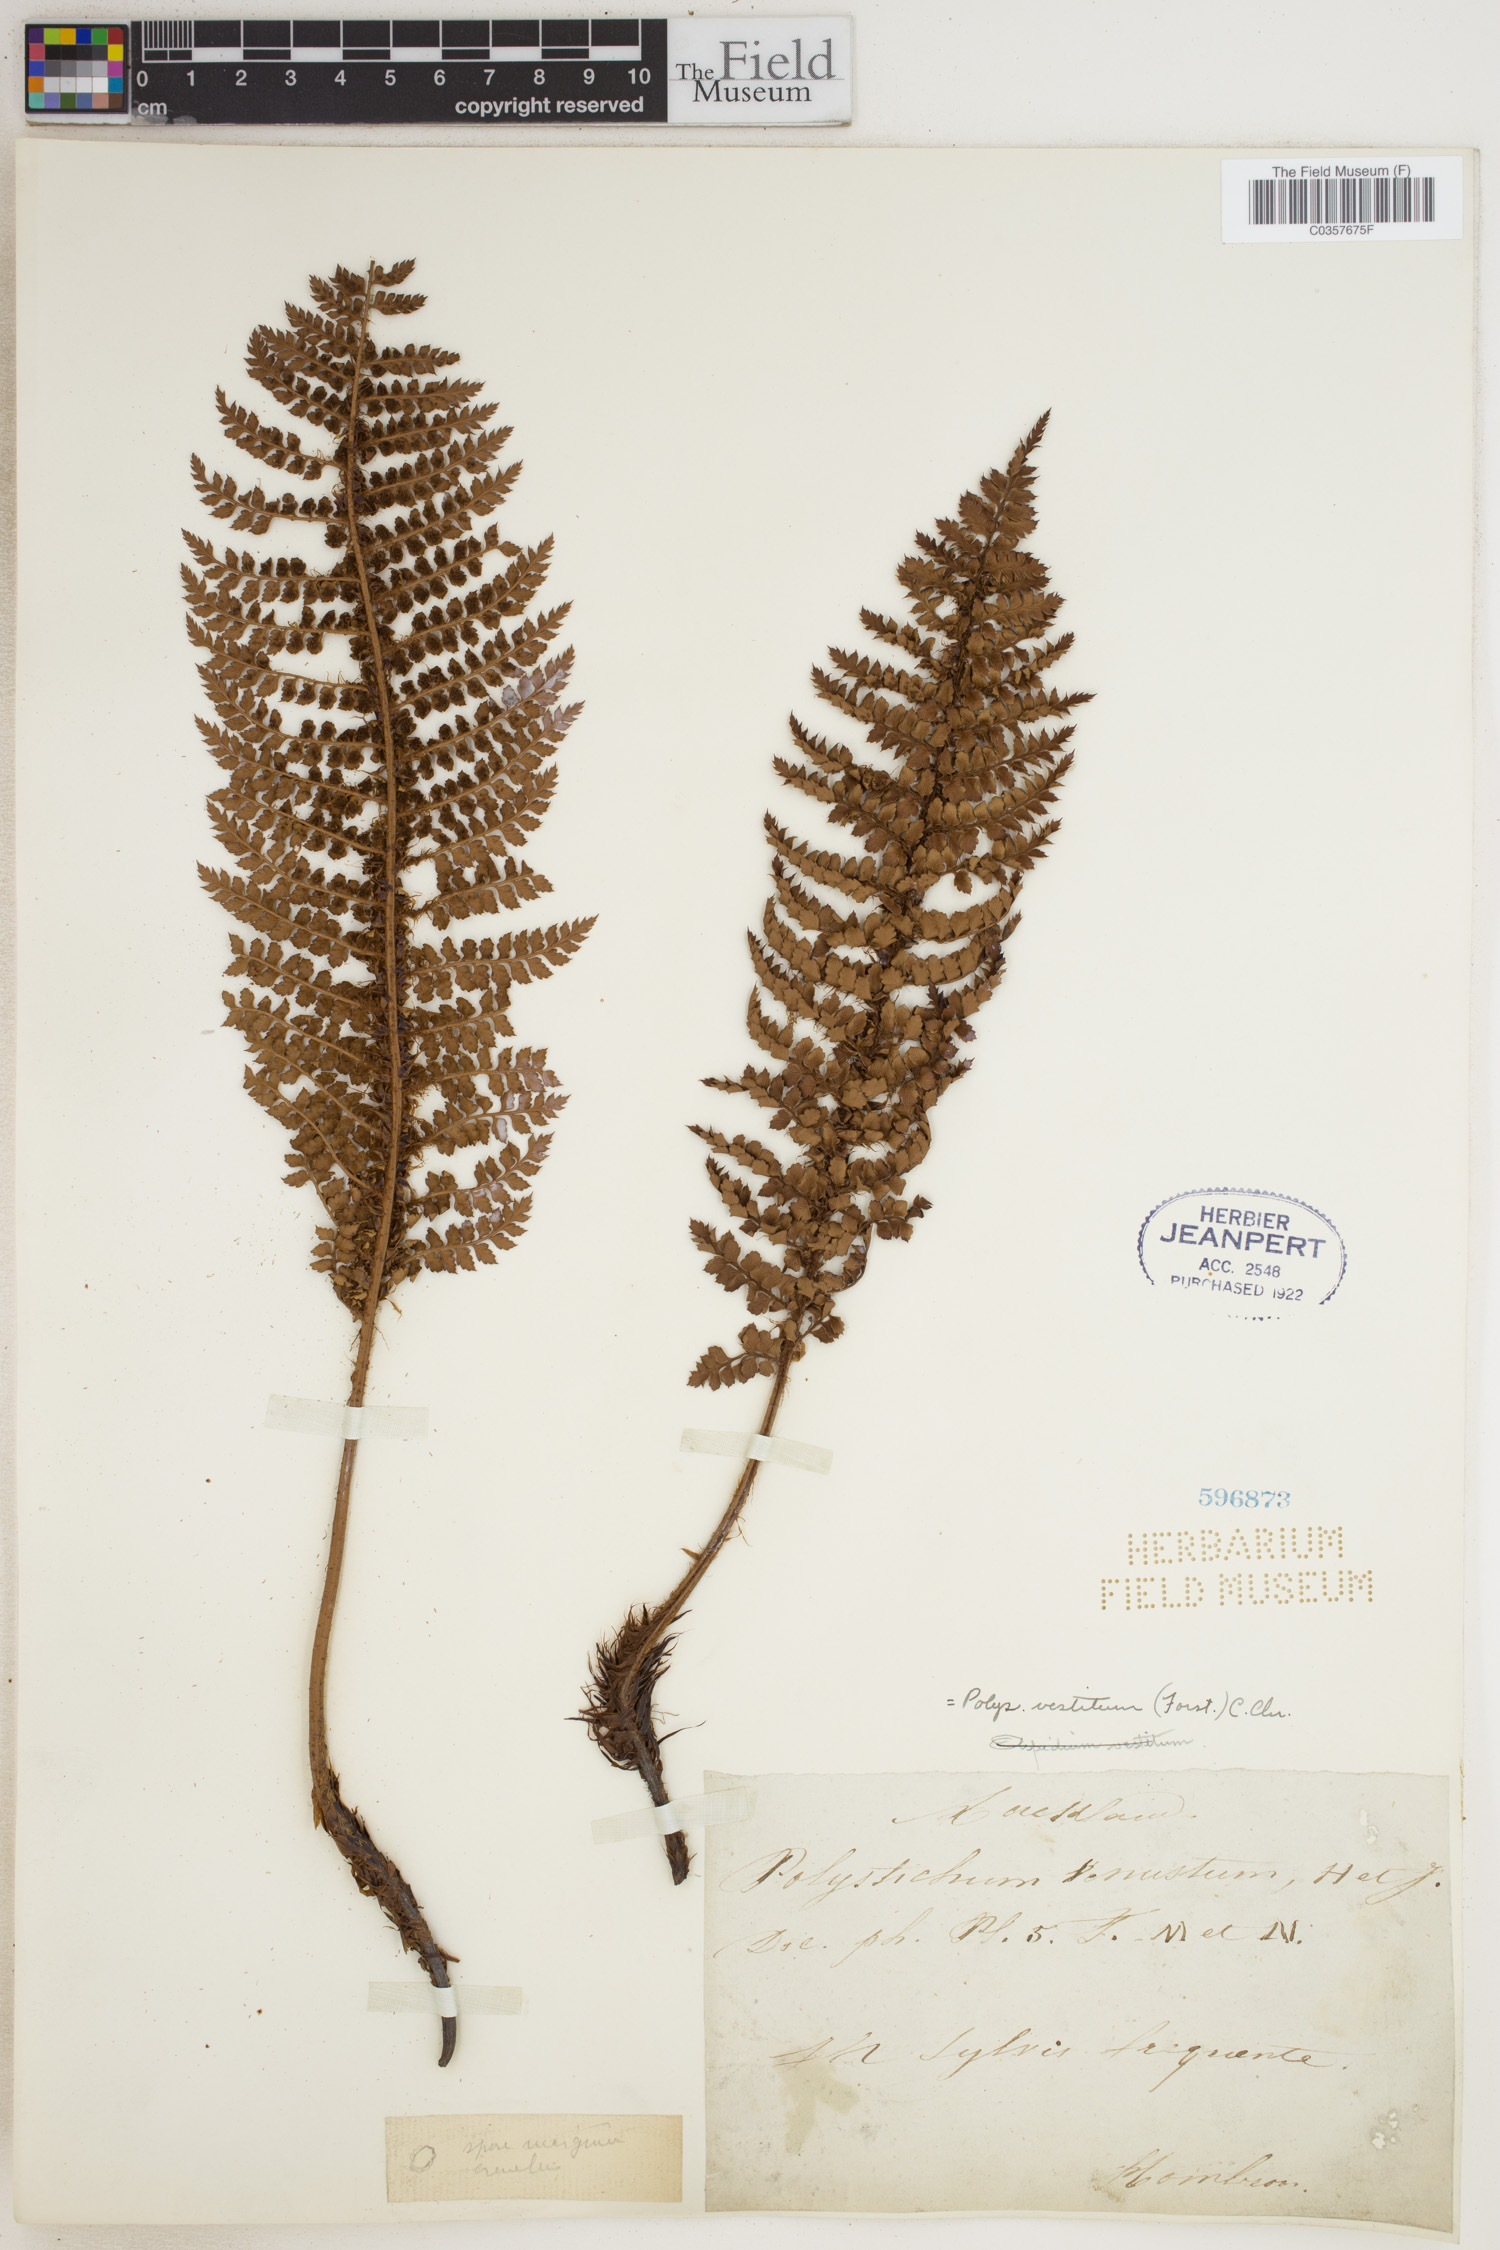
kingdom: Plantae
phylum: Tracheophyta
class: Polypodiopsida
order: Polypodiales
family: Dryopteridaceae
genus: Polystichum
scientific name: Polystichum vestitum
